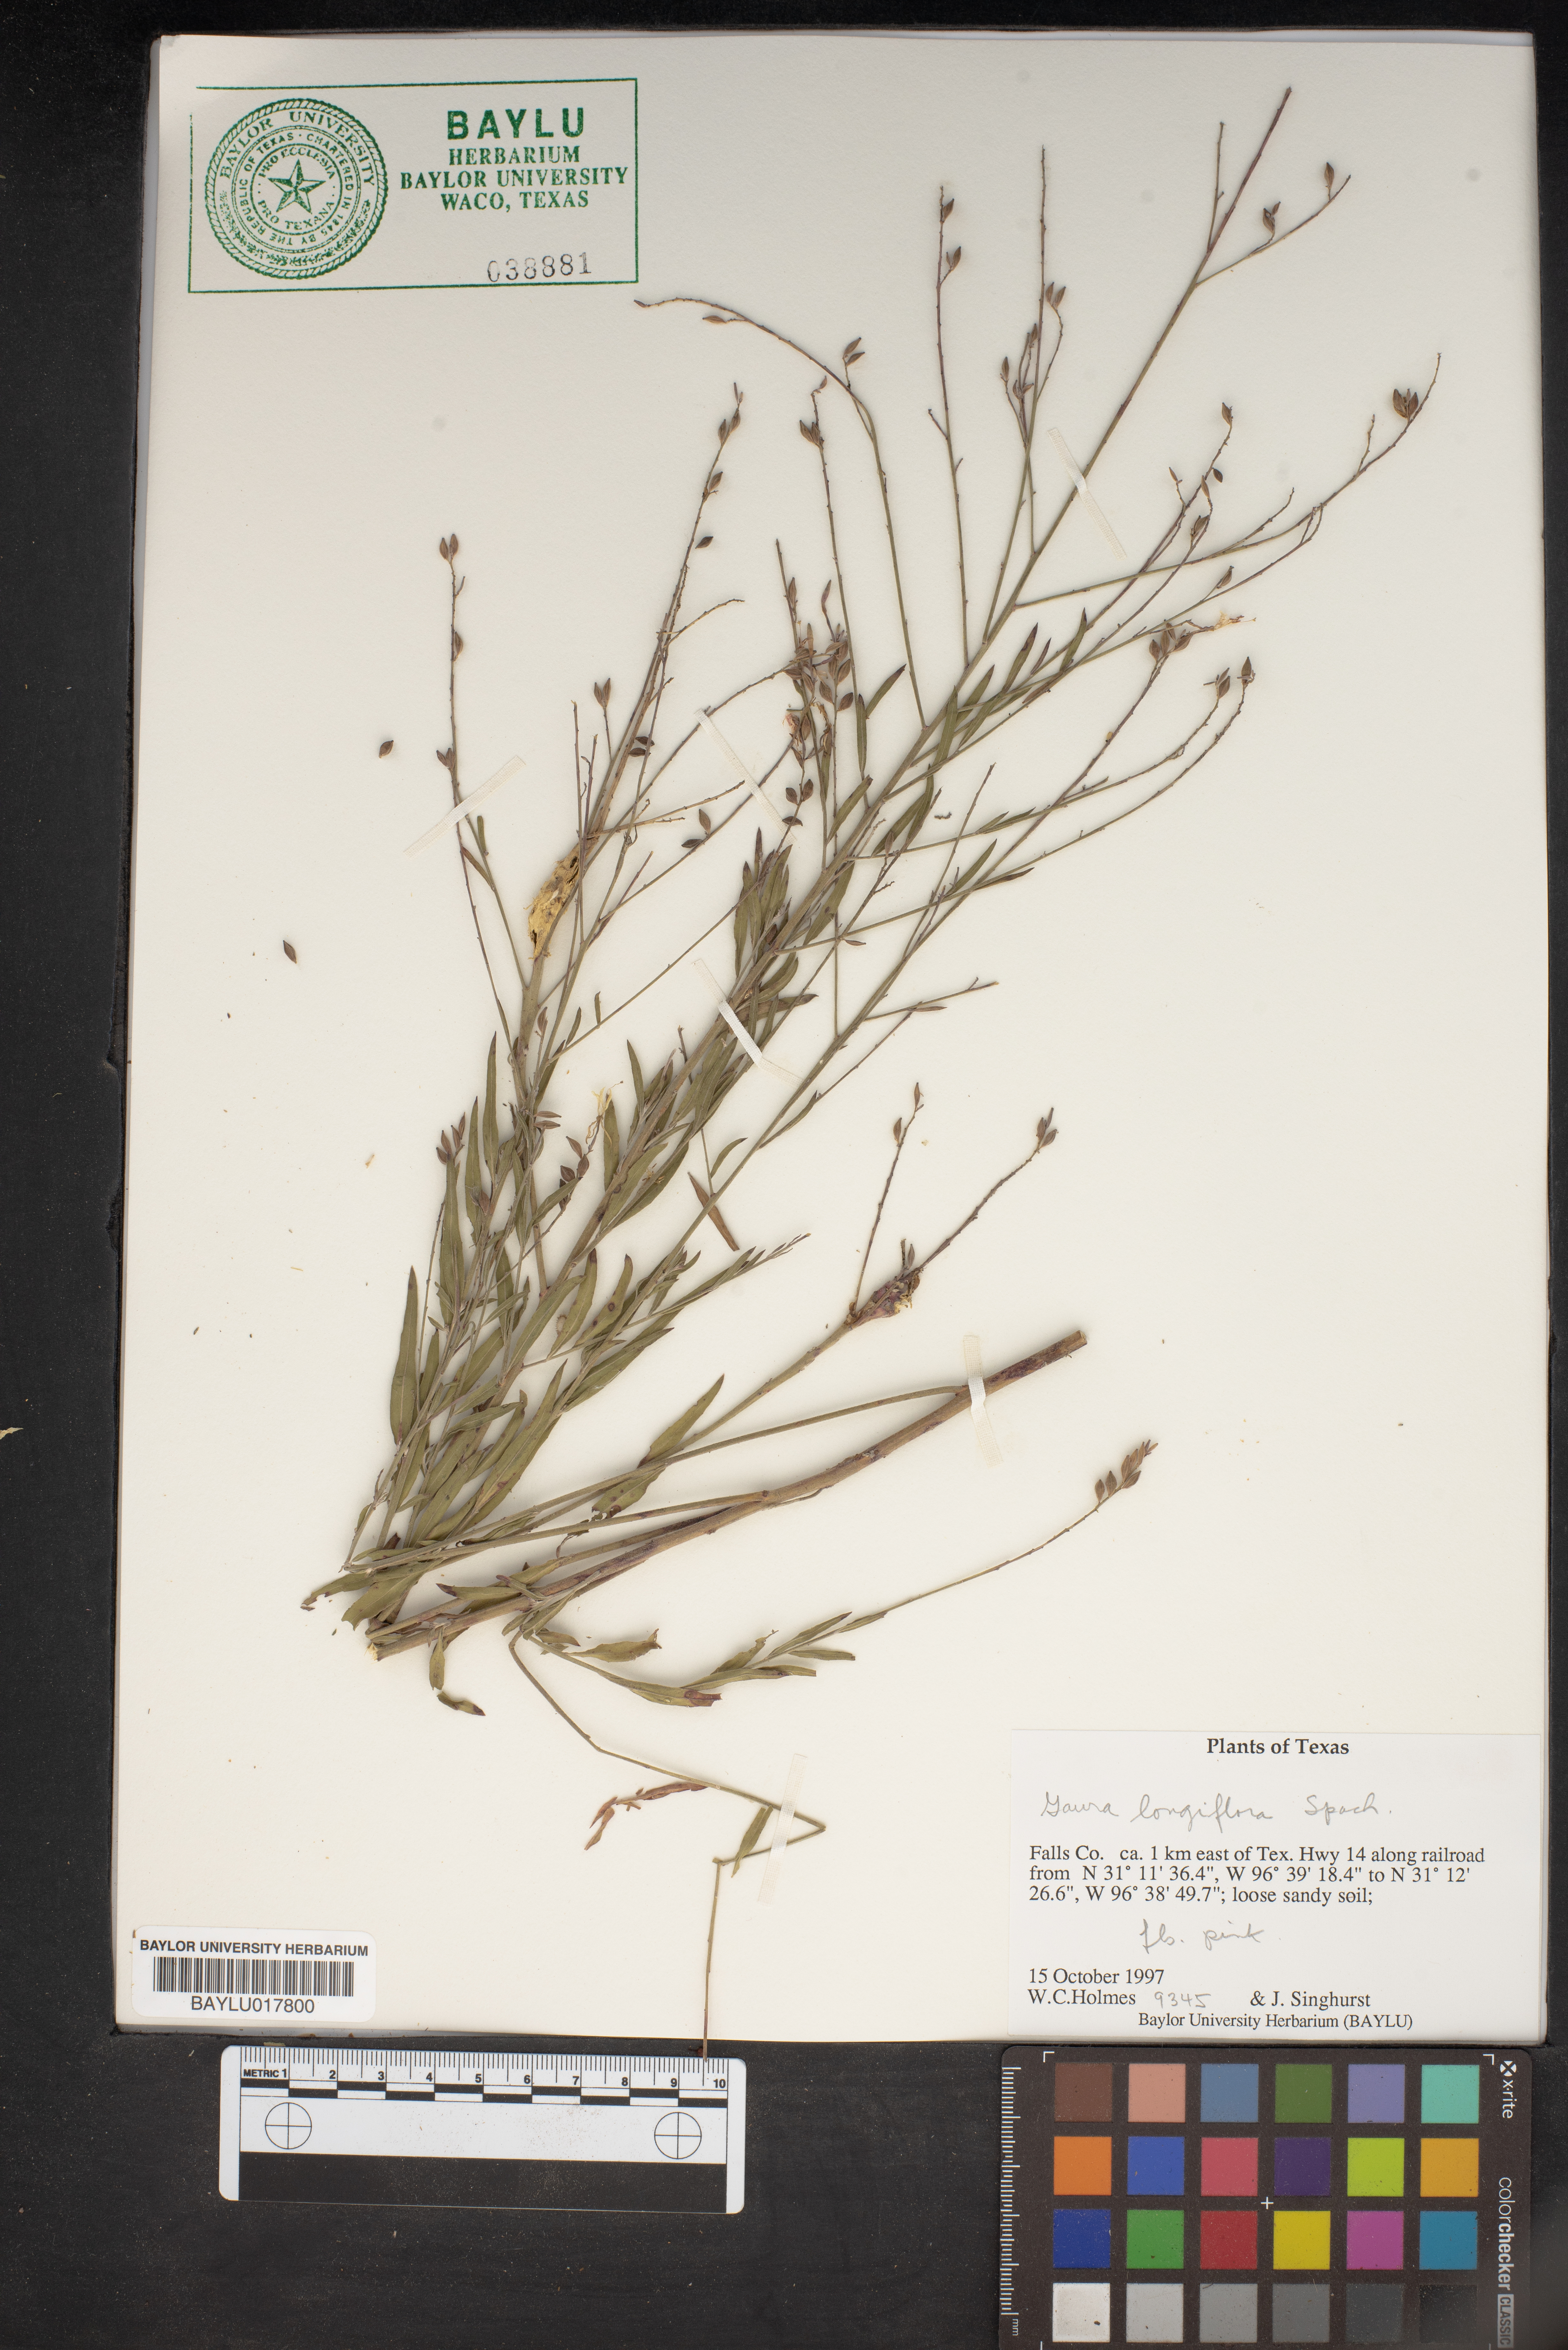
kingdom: Plantae
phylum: Tracheophyta
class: Magnoliopsida
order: Myrtales
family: Onagraceae
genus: Oenothera
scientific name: Oenothera filiformis
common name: Longflower beeblossom
